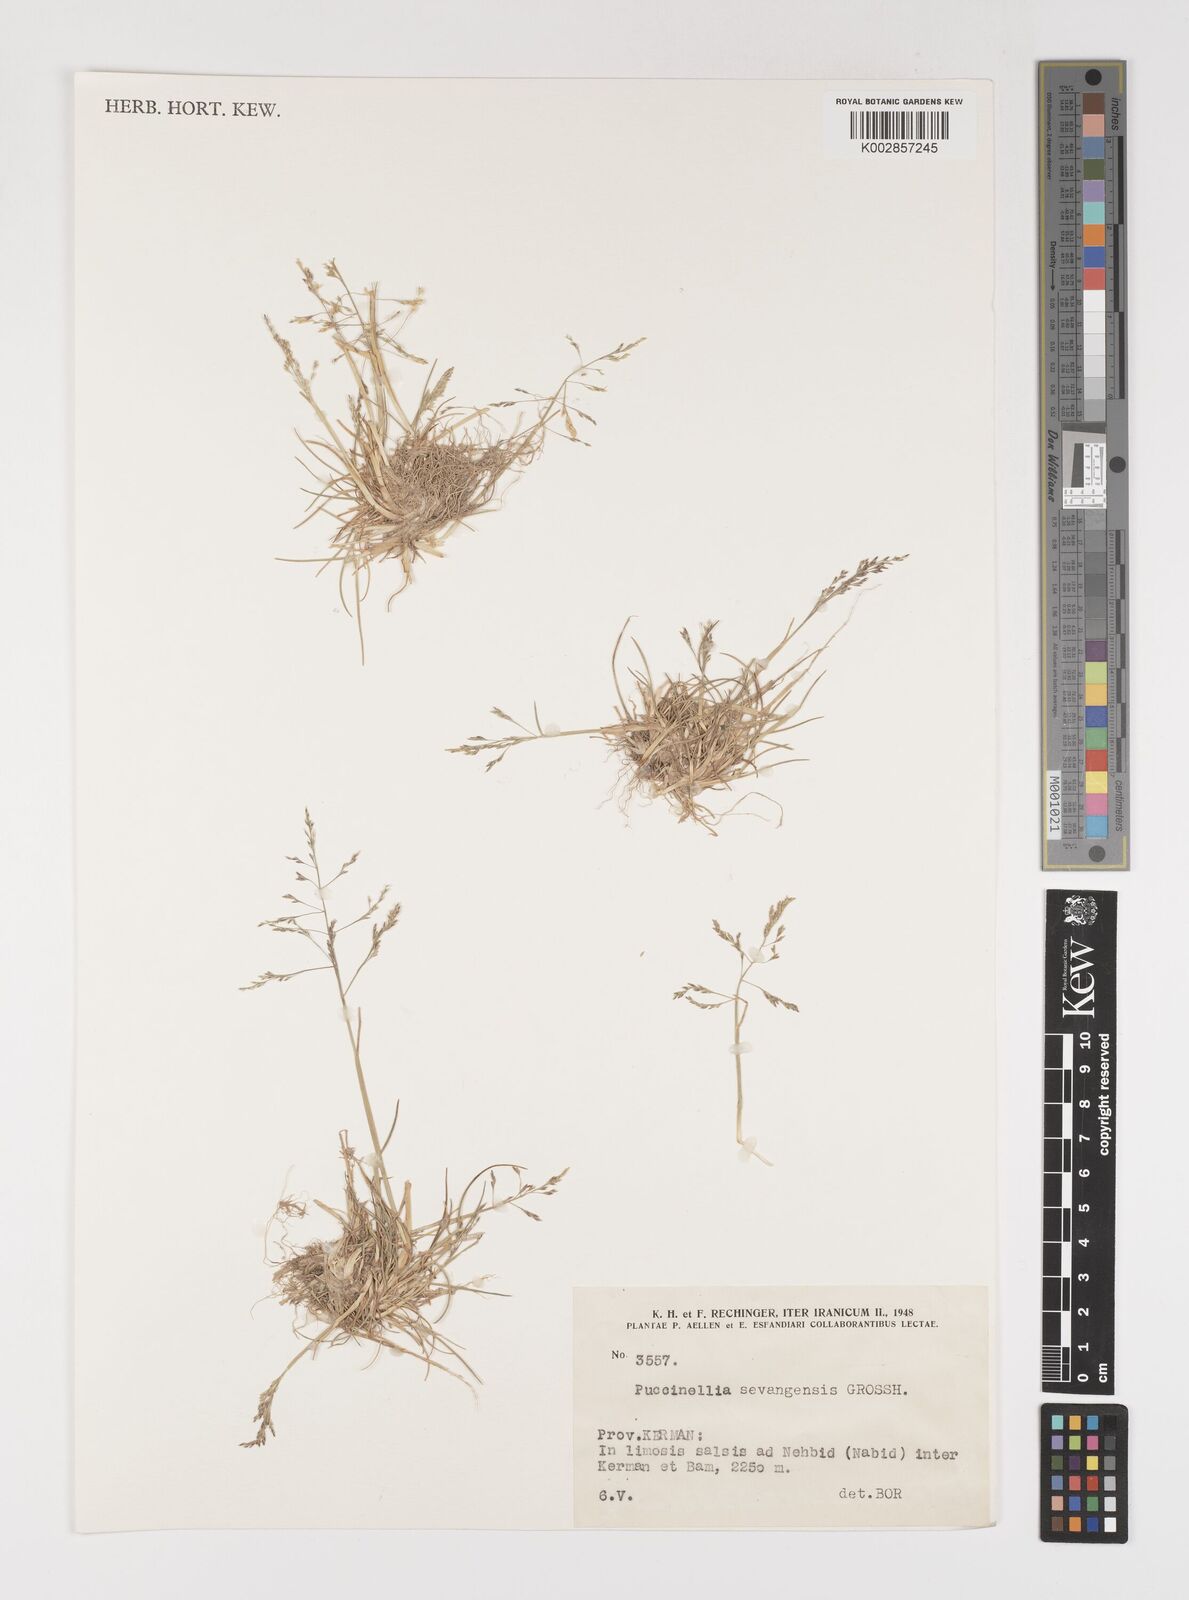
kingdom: Plantae
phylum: Tracheophyta
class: Liliopsida
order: Poales
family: Poaceae
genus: Puccinellia
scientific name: Puccinellia distans
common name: Weeping alkaligrass
